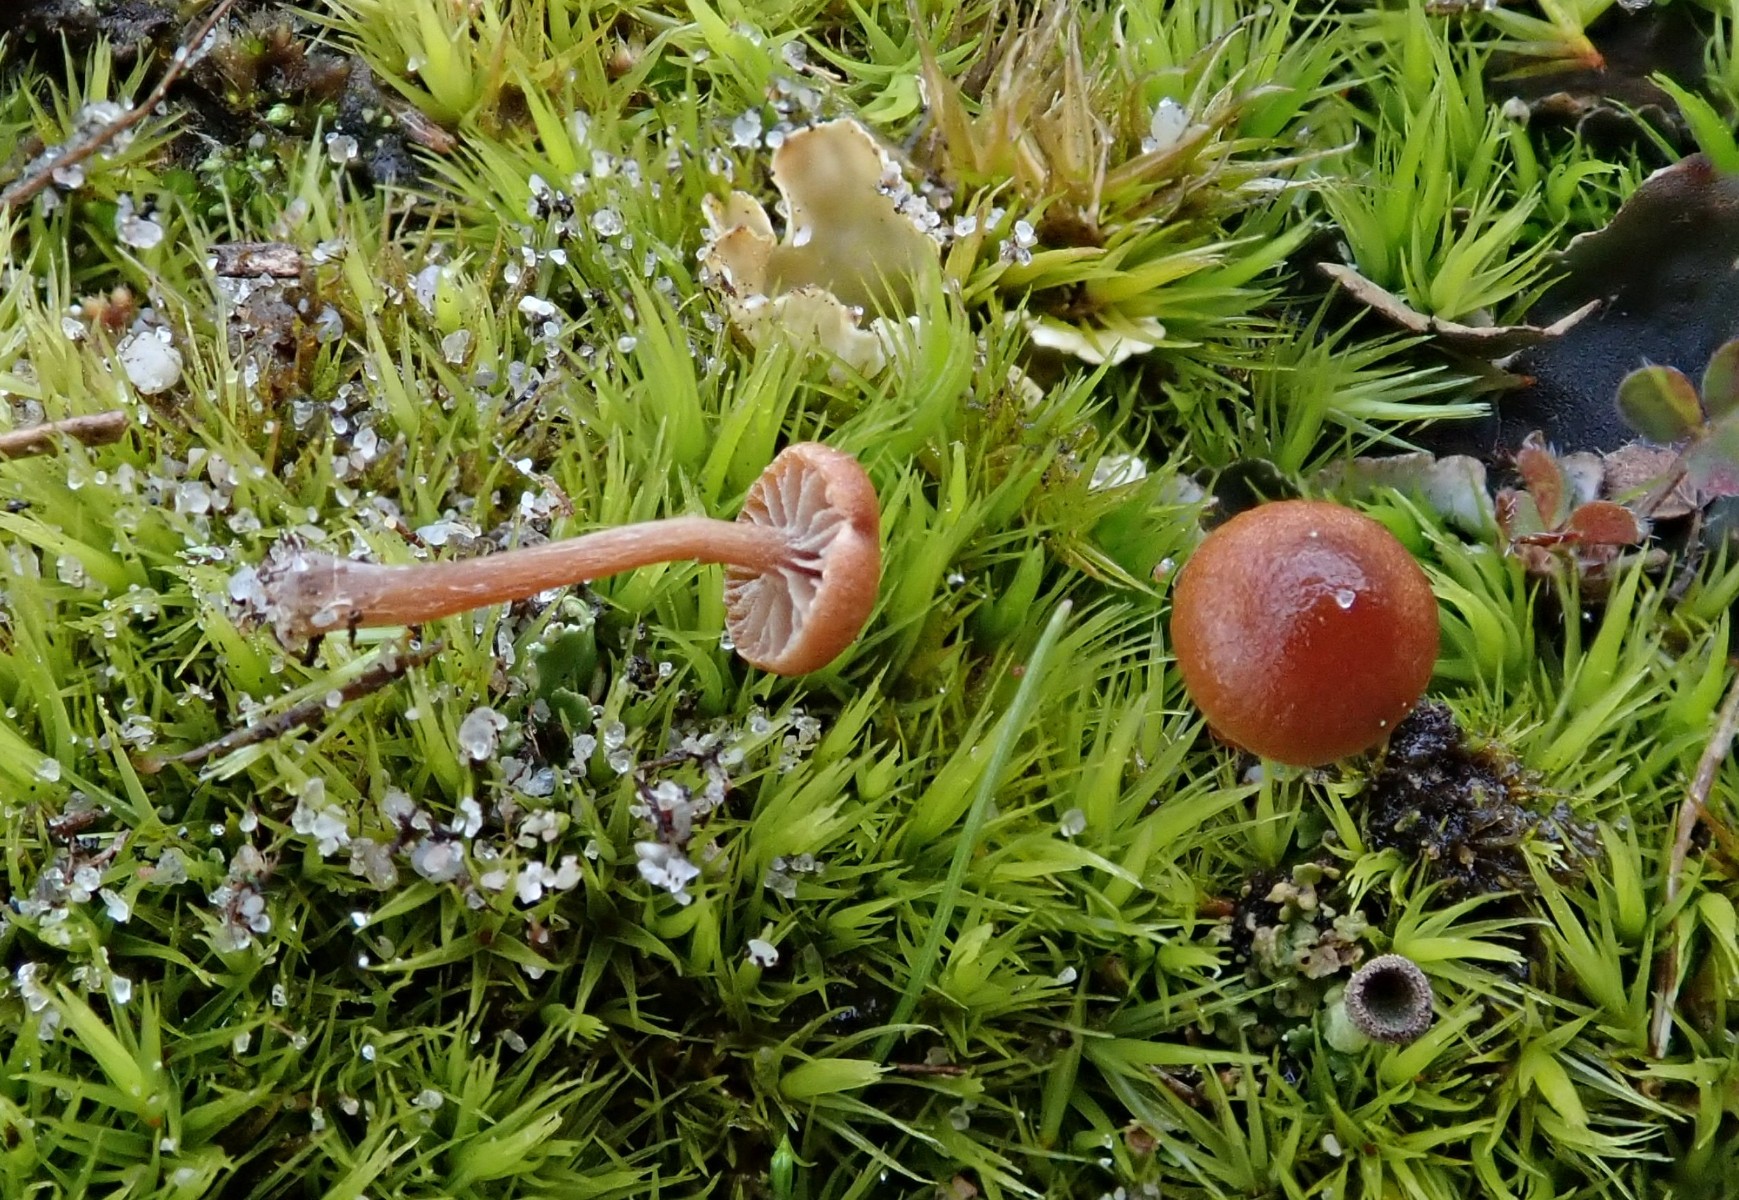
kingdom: Fungi
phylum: Basidiomycota
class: Agaricomycetes
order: Agaricales
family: Strophariaceae
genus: Deconica
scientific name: Deconica montana
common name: rødbrun stråhat
